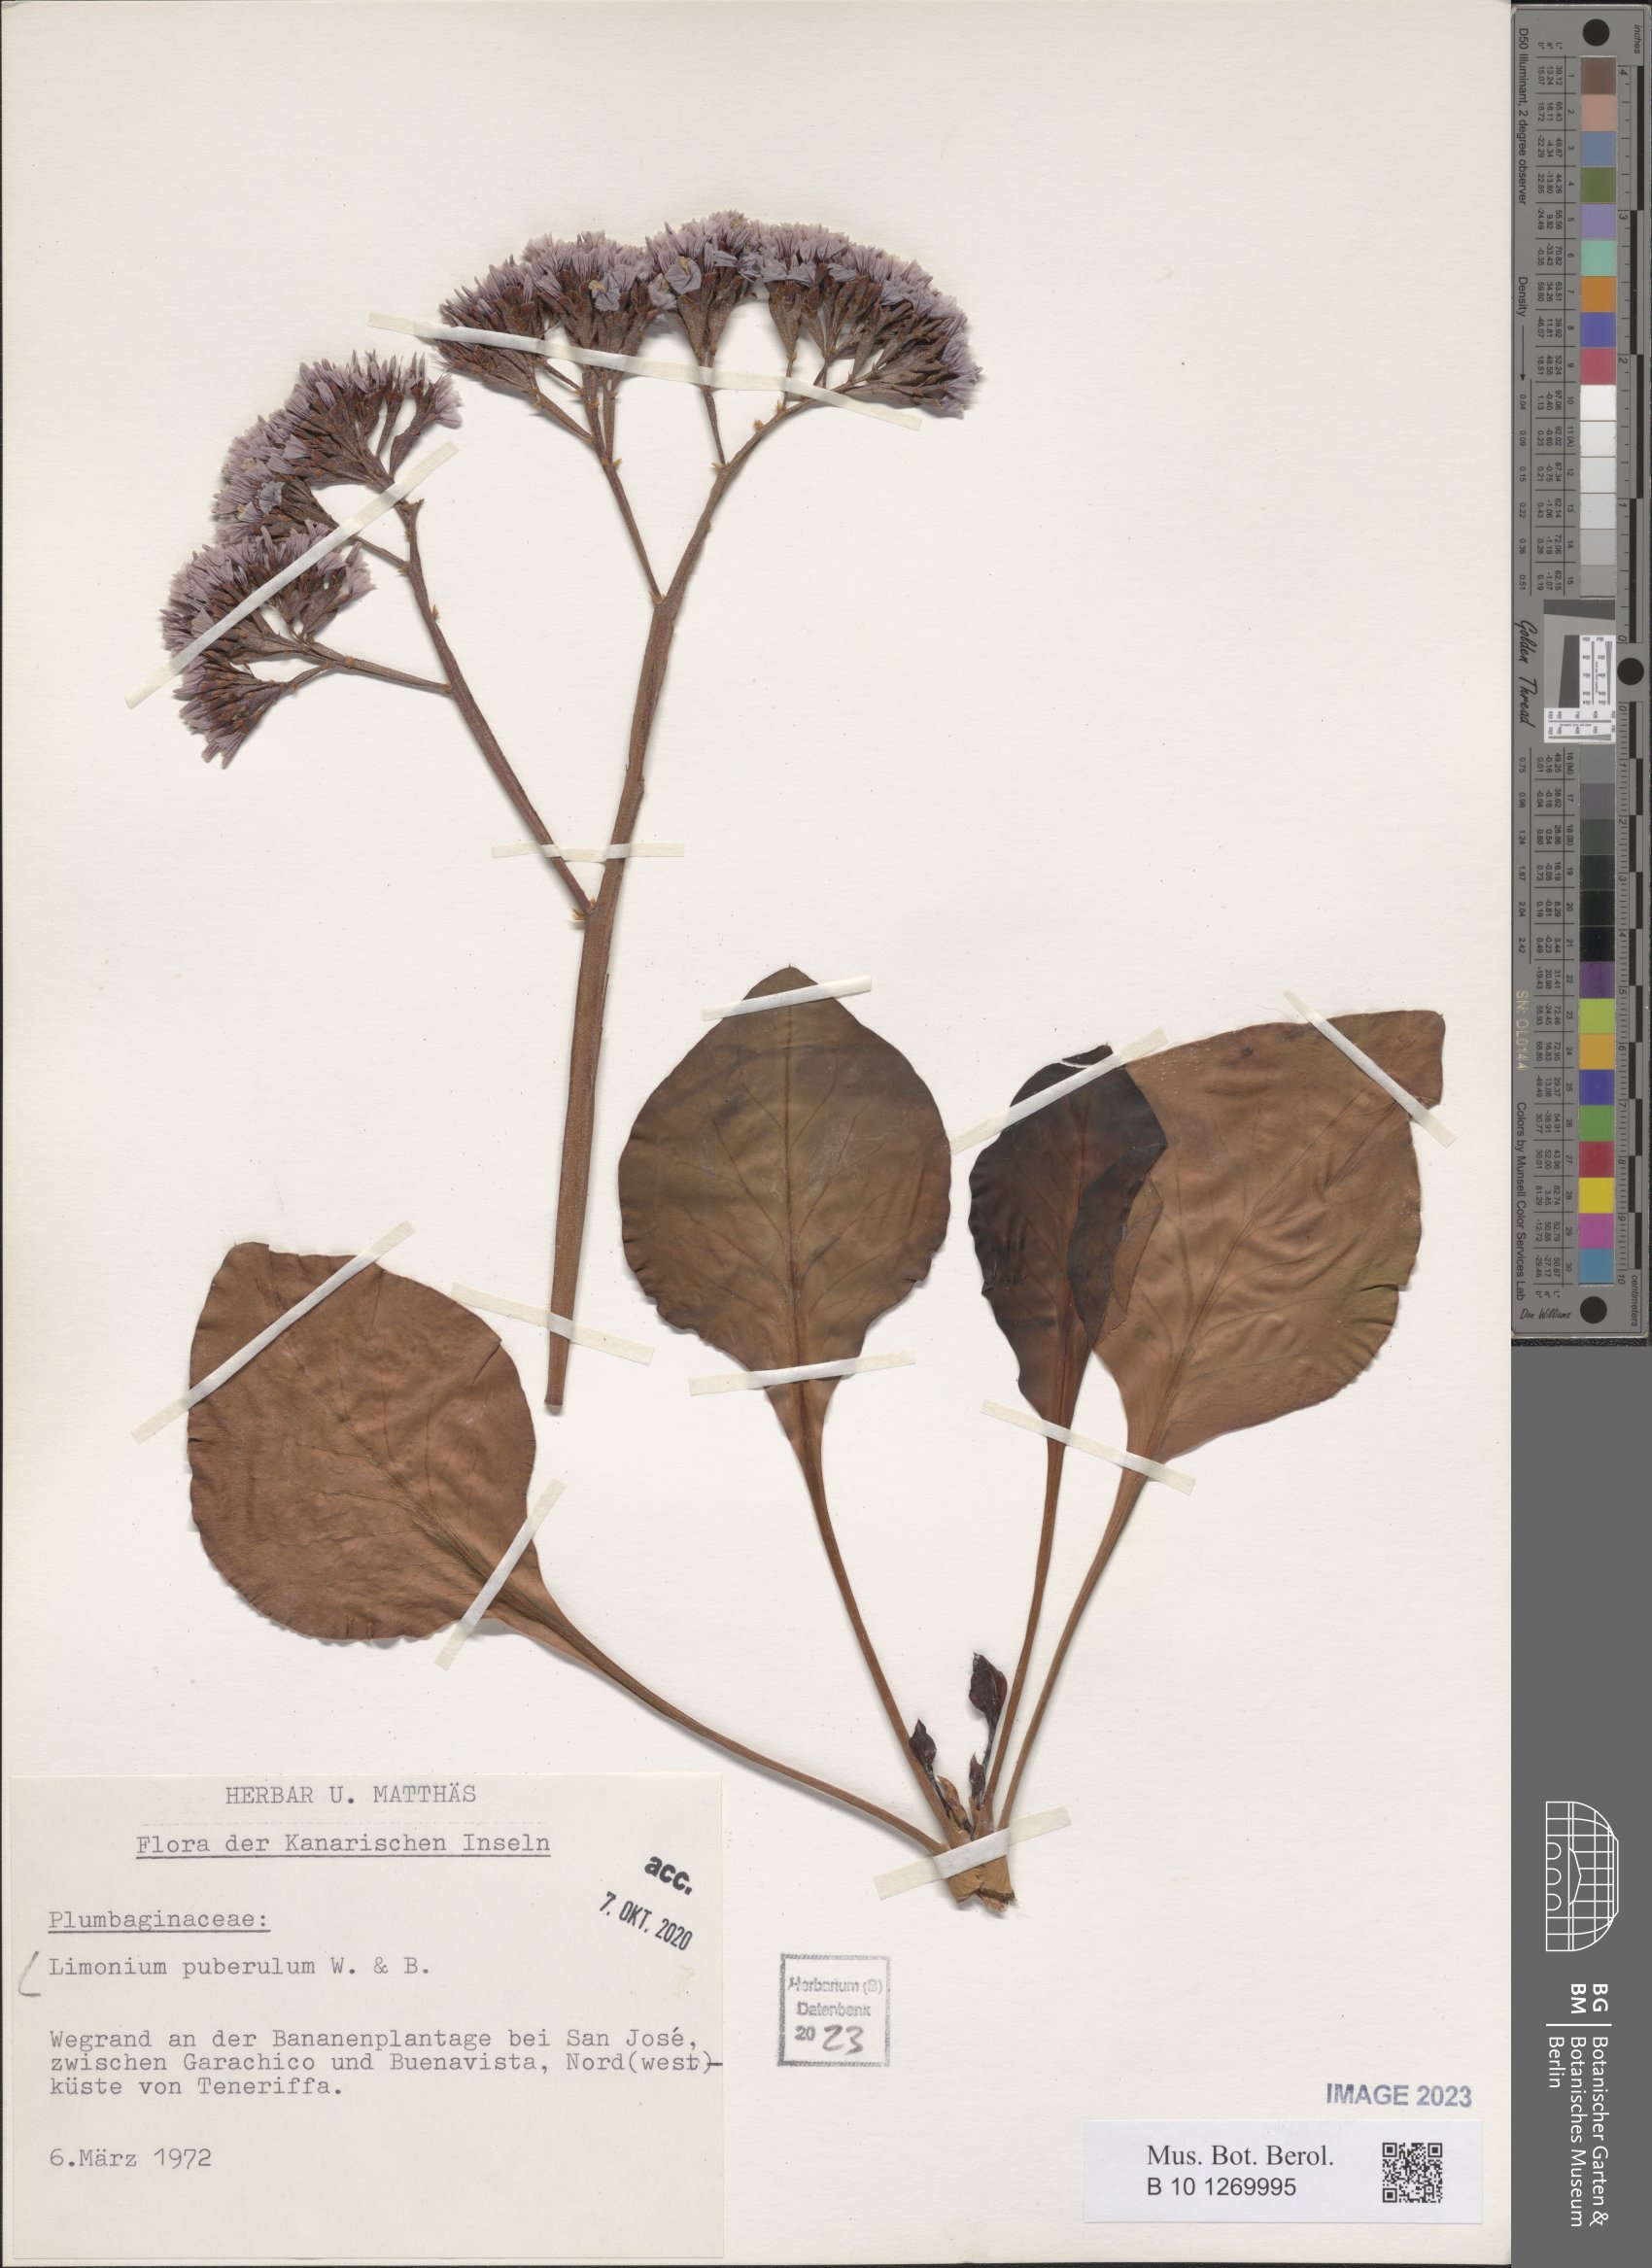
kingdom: Plantae
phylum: Tracheophyta
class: Magnoliopsida
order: Caryophyllales
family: Plumbaginaceae
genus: Limonium
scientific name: Limonium puberulum
